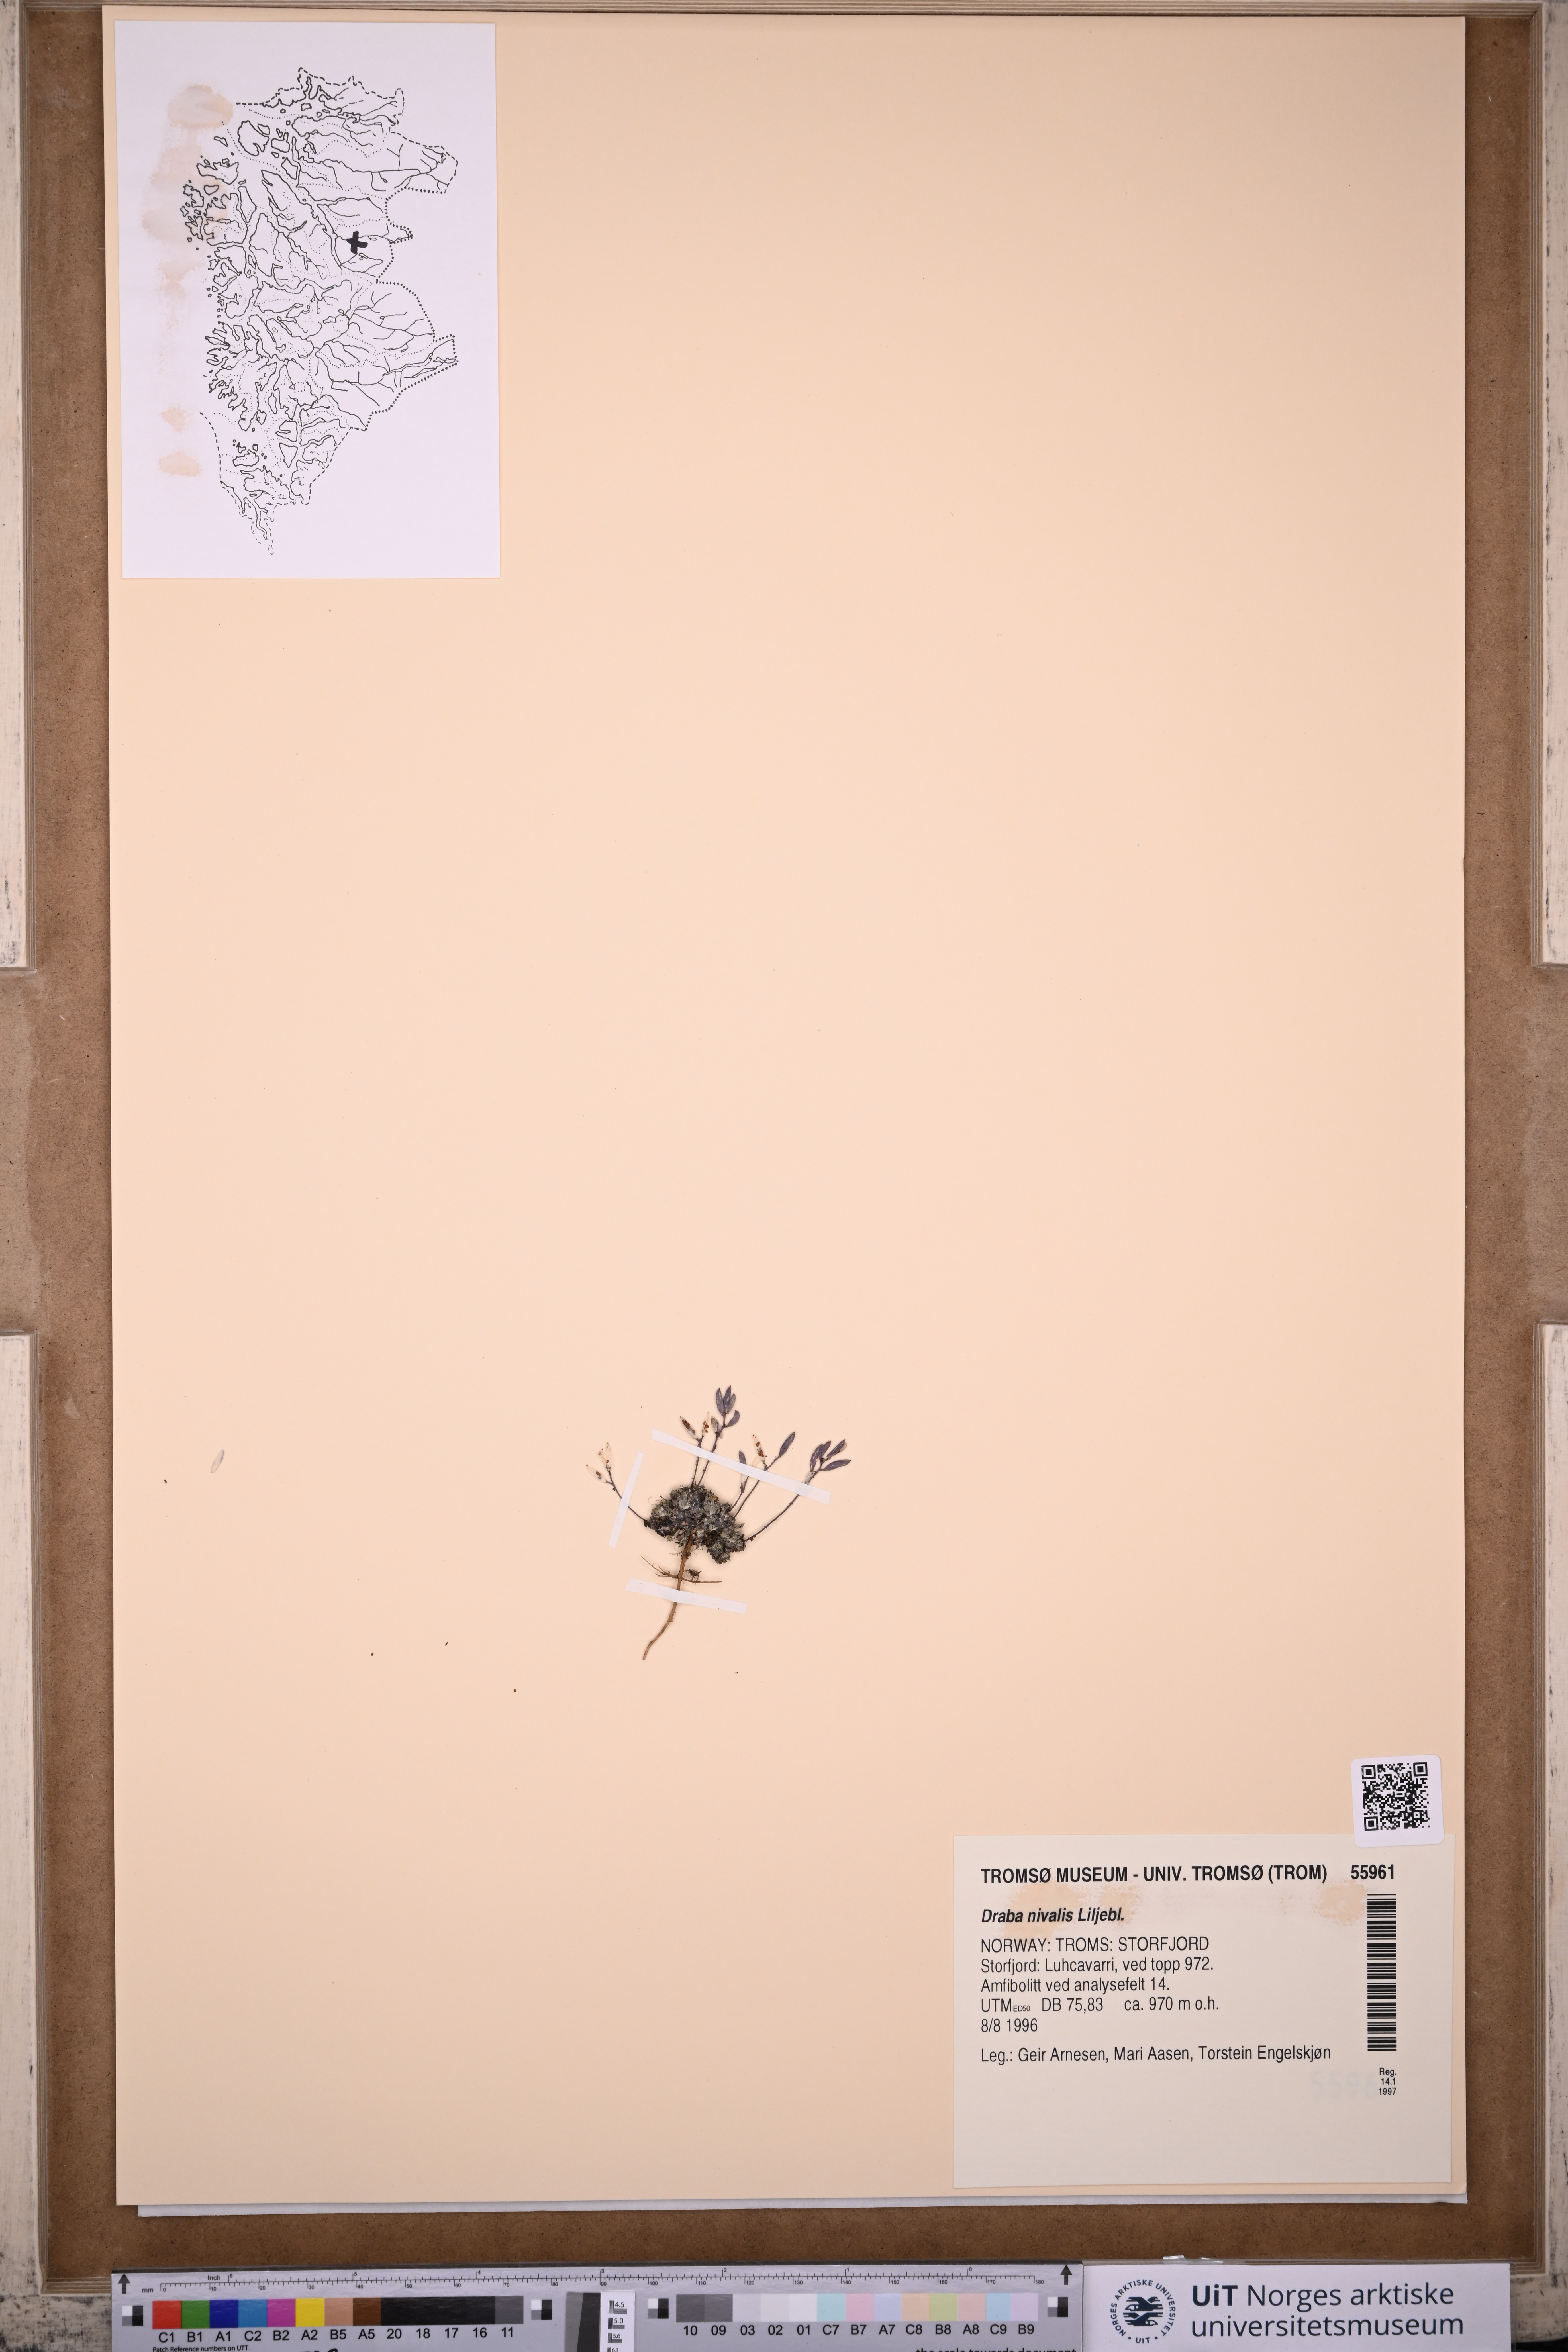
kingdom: Plantae
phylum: Tracheophyta
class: Magnoliopsida
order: Brassicales
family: Brassicaceae
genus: Draba
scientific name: Draba nivalis
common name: Snow draba
